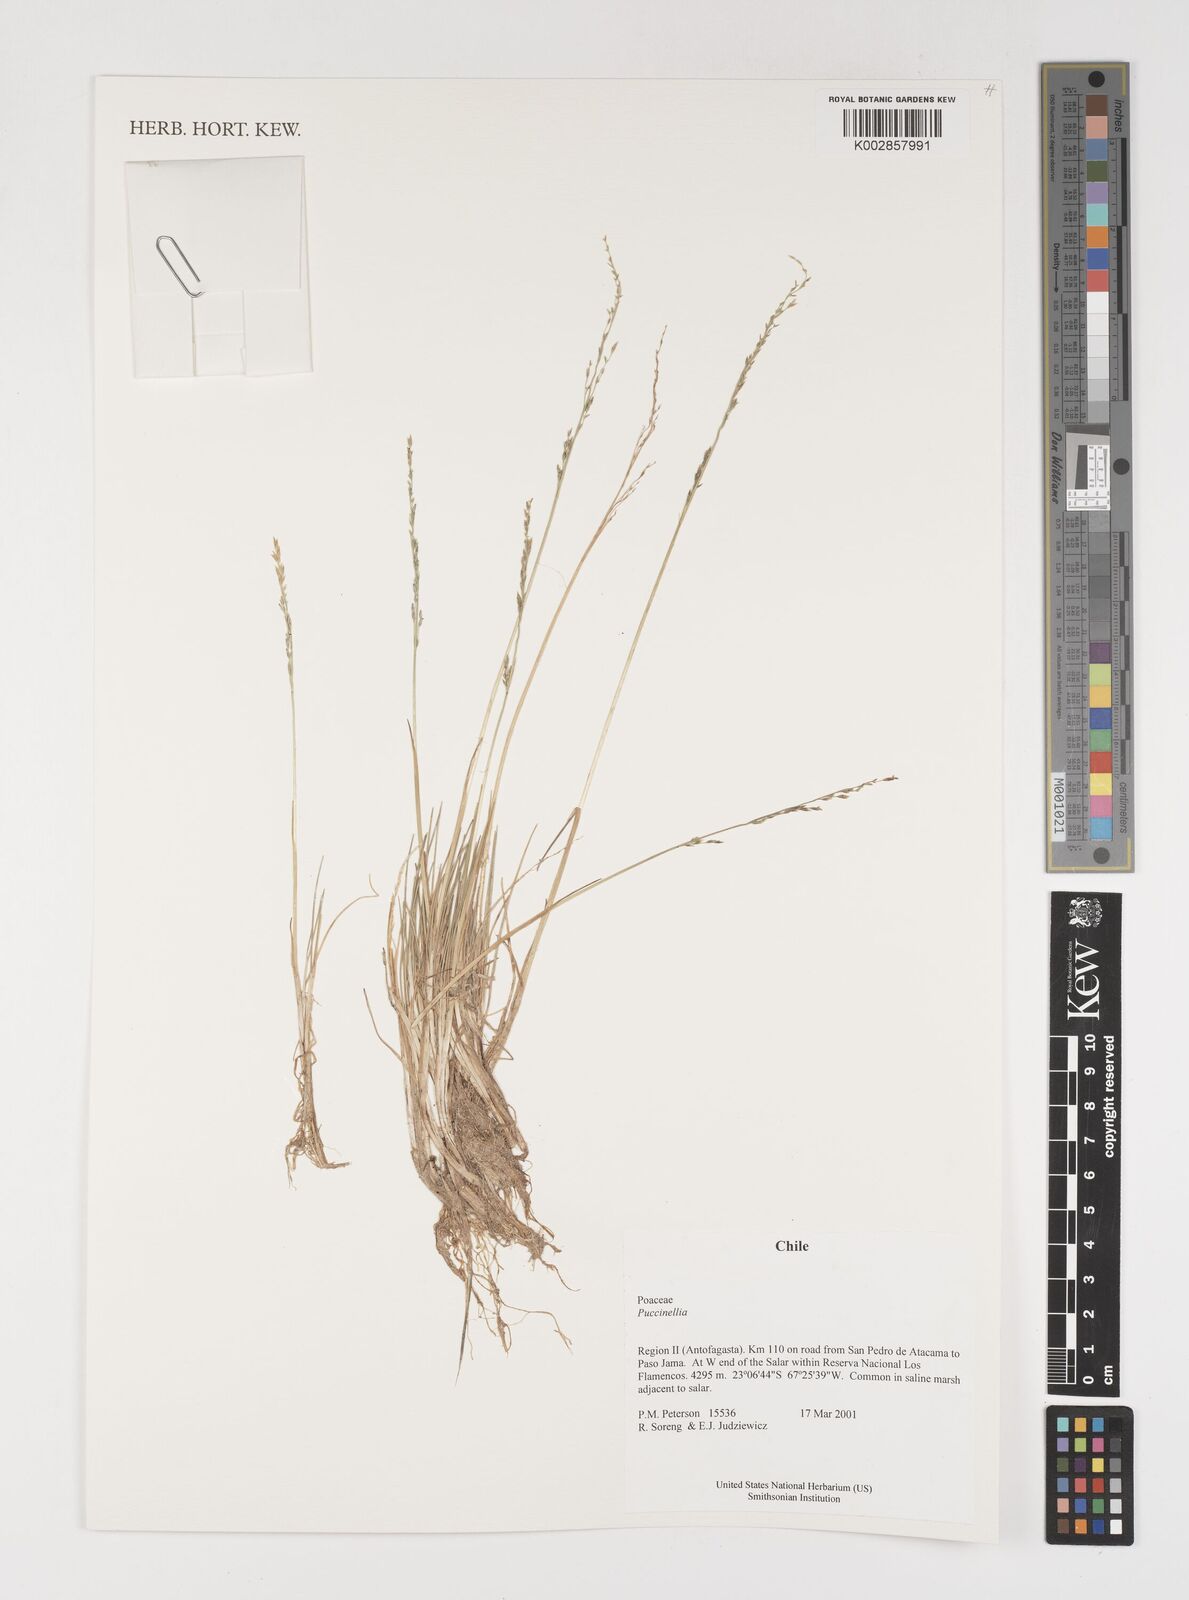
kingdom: Plantae
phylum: Tracheophyta
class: Liliopsida
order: Poales
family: Poaceae
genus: Puccinellia
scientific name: Puccinellia
